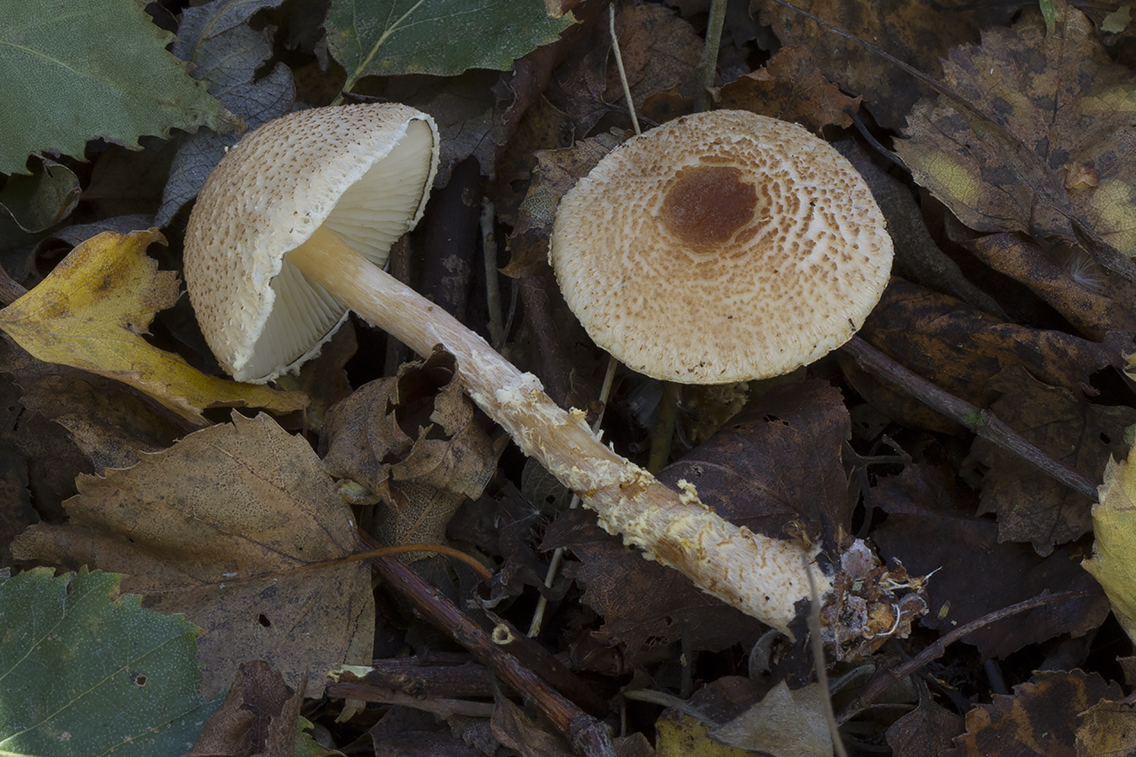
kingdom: Fungi
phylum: Basidiomycota
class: Agaricomycetes
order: Agaricales
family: Agaricaceae
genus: Lepiota
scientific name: Lepiota magnispora
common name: gulfnugget parasolhat
